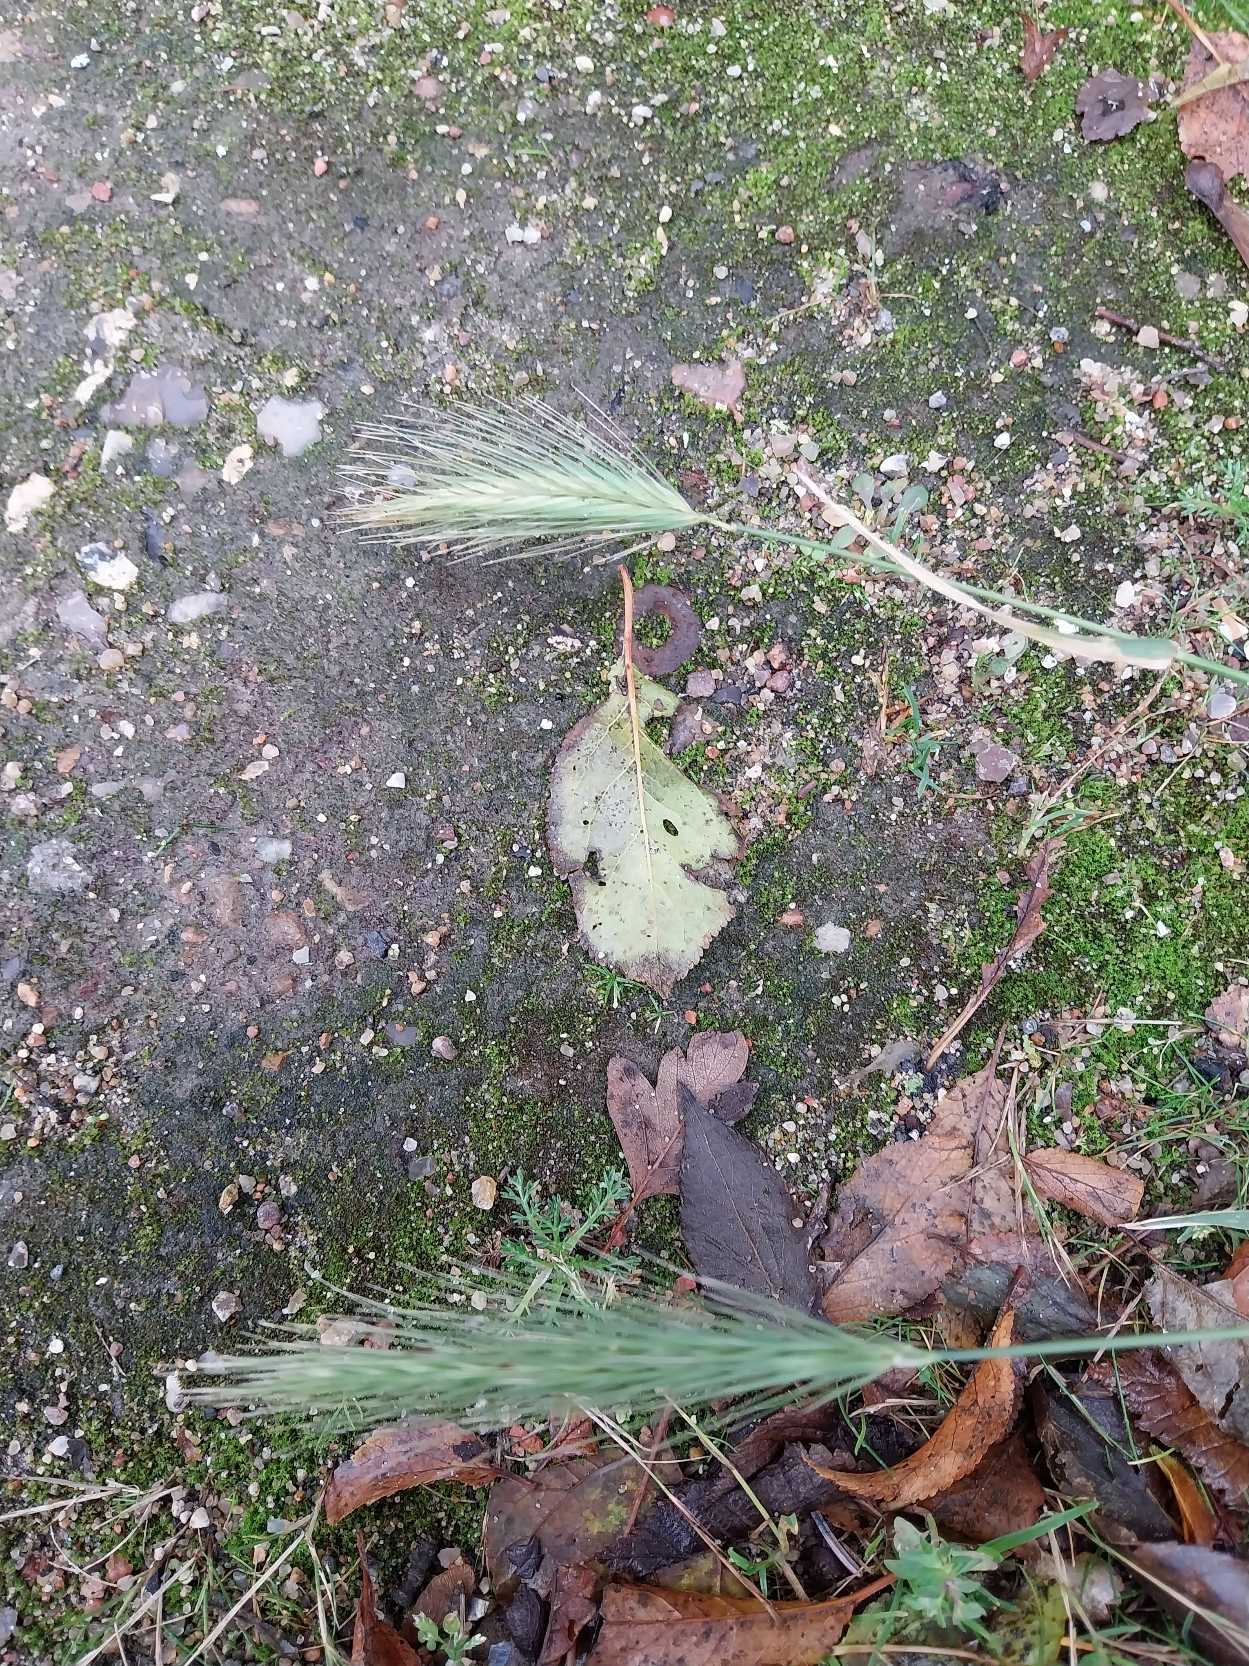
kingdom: Plantae
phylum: Tracheophyta
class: Liliopsida
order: Poales
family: Poaceae
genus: Hordeum
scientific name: Hordeum murinum
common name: Gold byg
